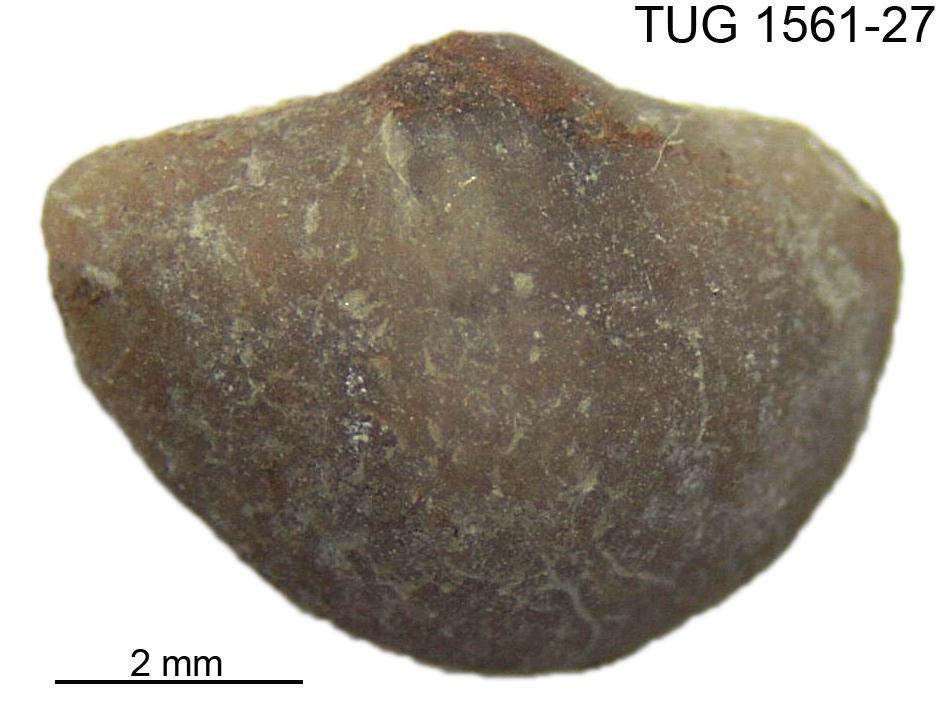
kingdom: Animalia
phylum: Brachiopoda
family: Oldhaminidae
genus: Eoplectodonta
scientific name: Eoplectodonta
